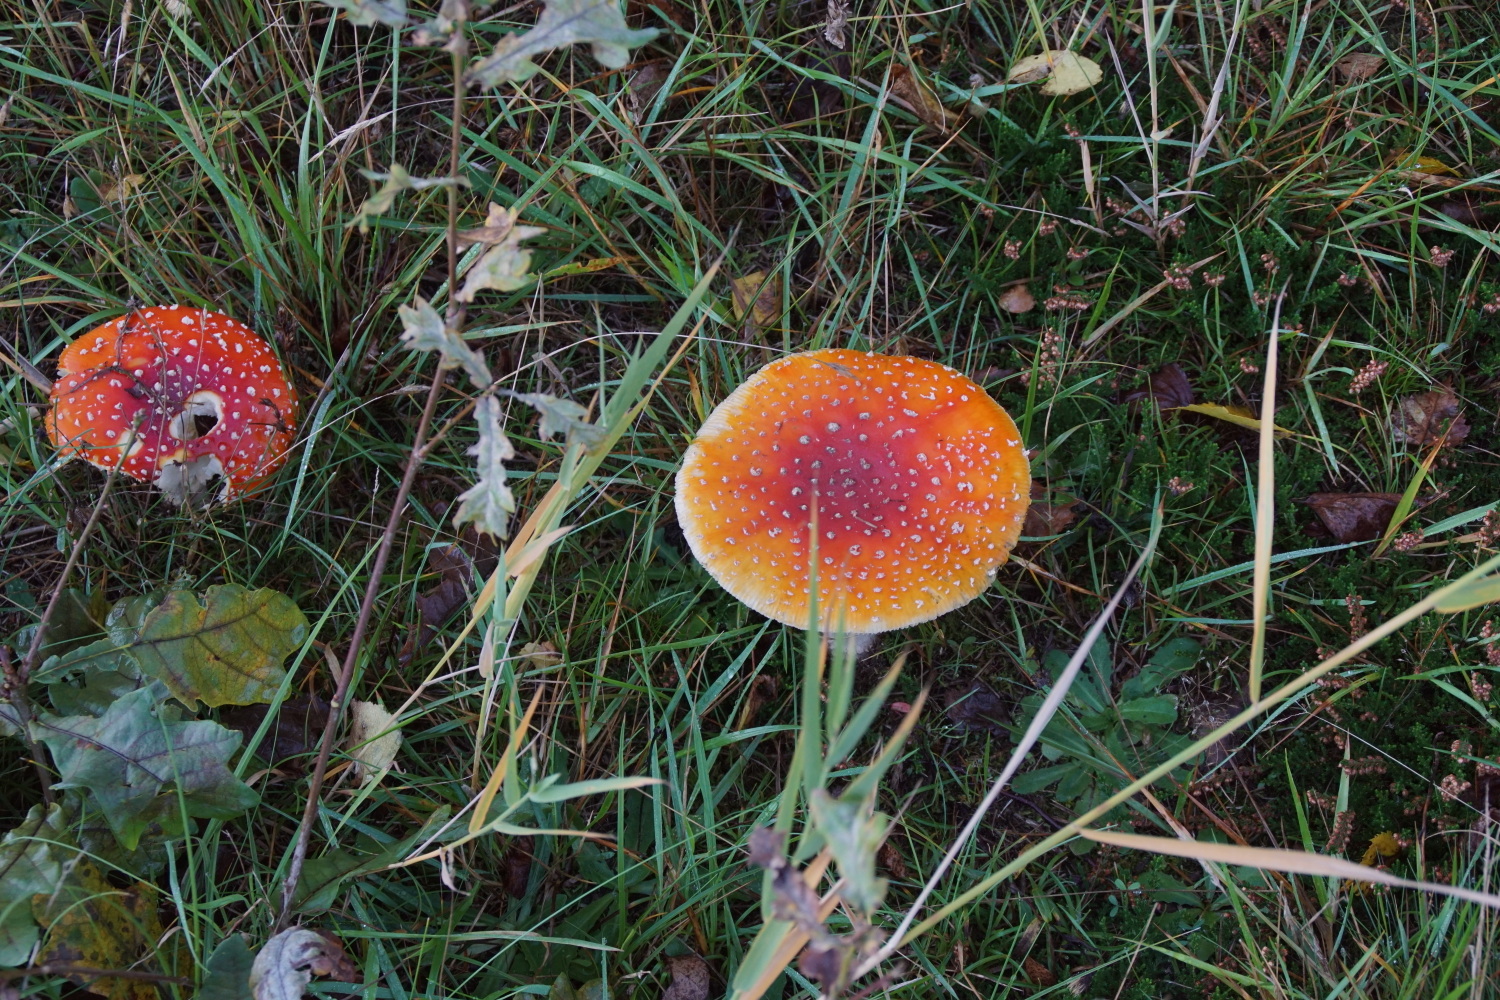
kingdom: Fungi
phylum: Basidiomycota
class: Agaricomycetes
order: Agaricales
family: Amanitaceae
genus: Amanita
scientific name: Amanita muscaria
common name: rød fluesvamp
